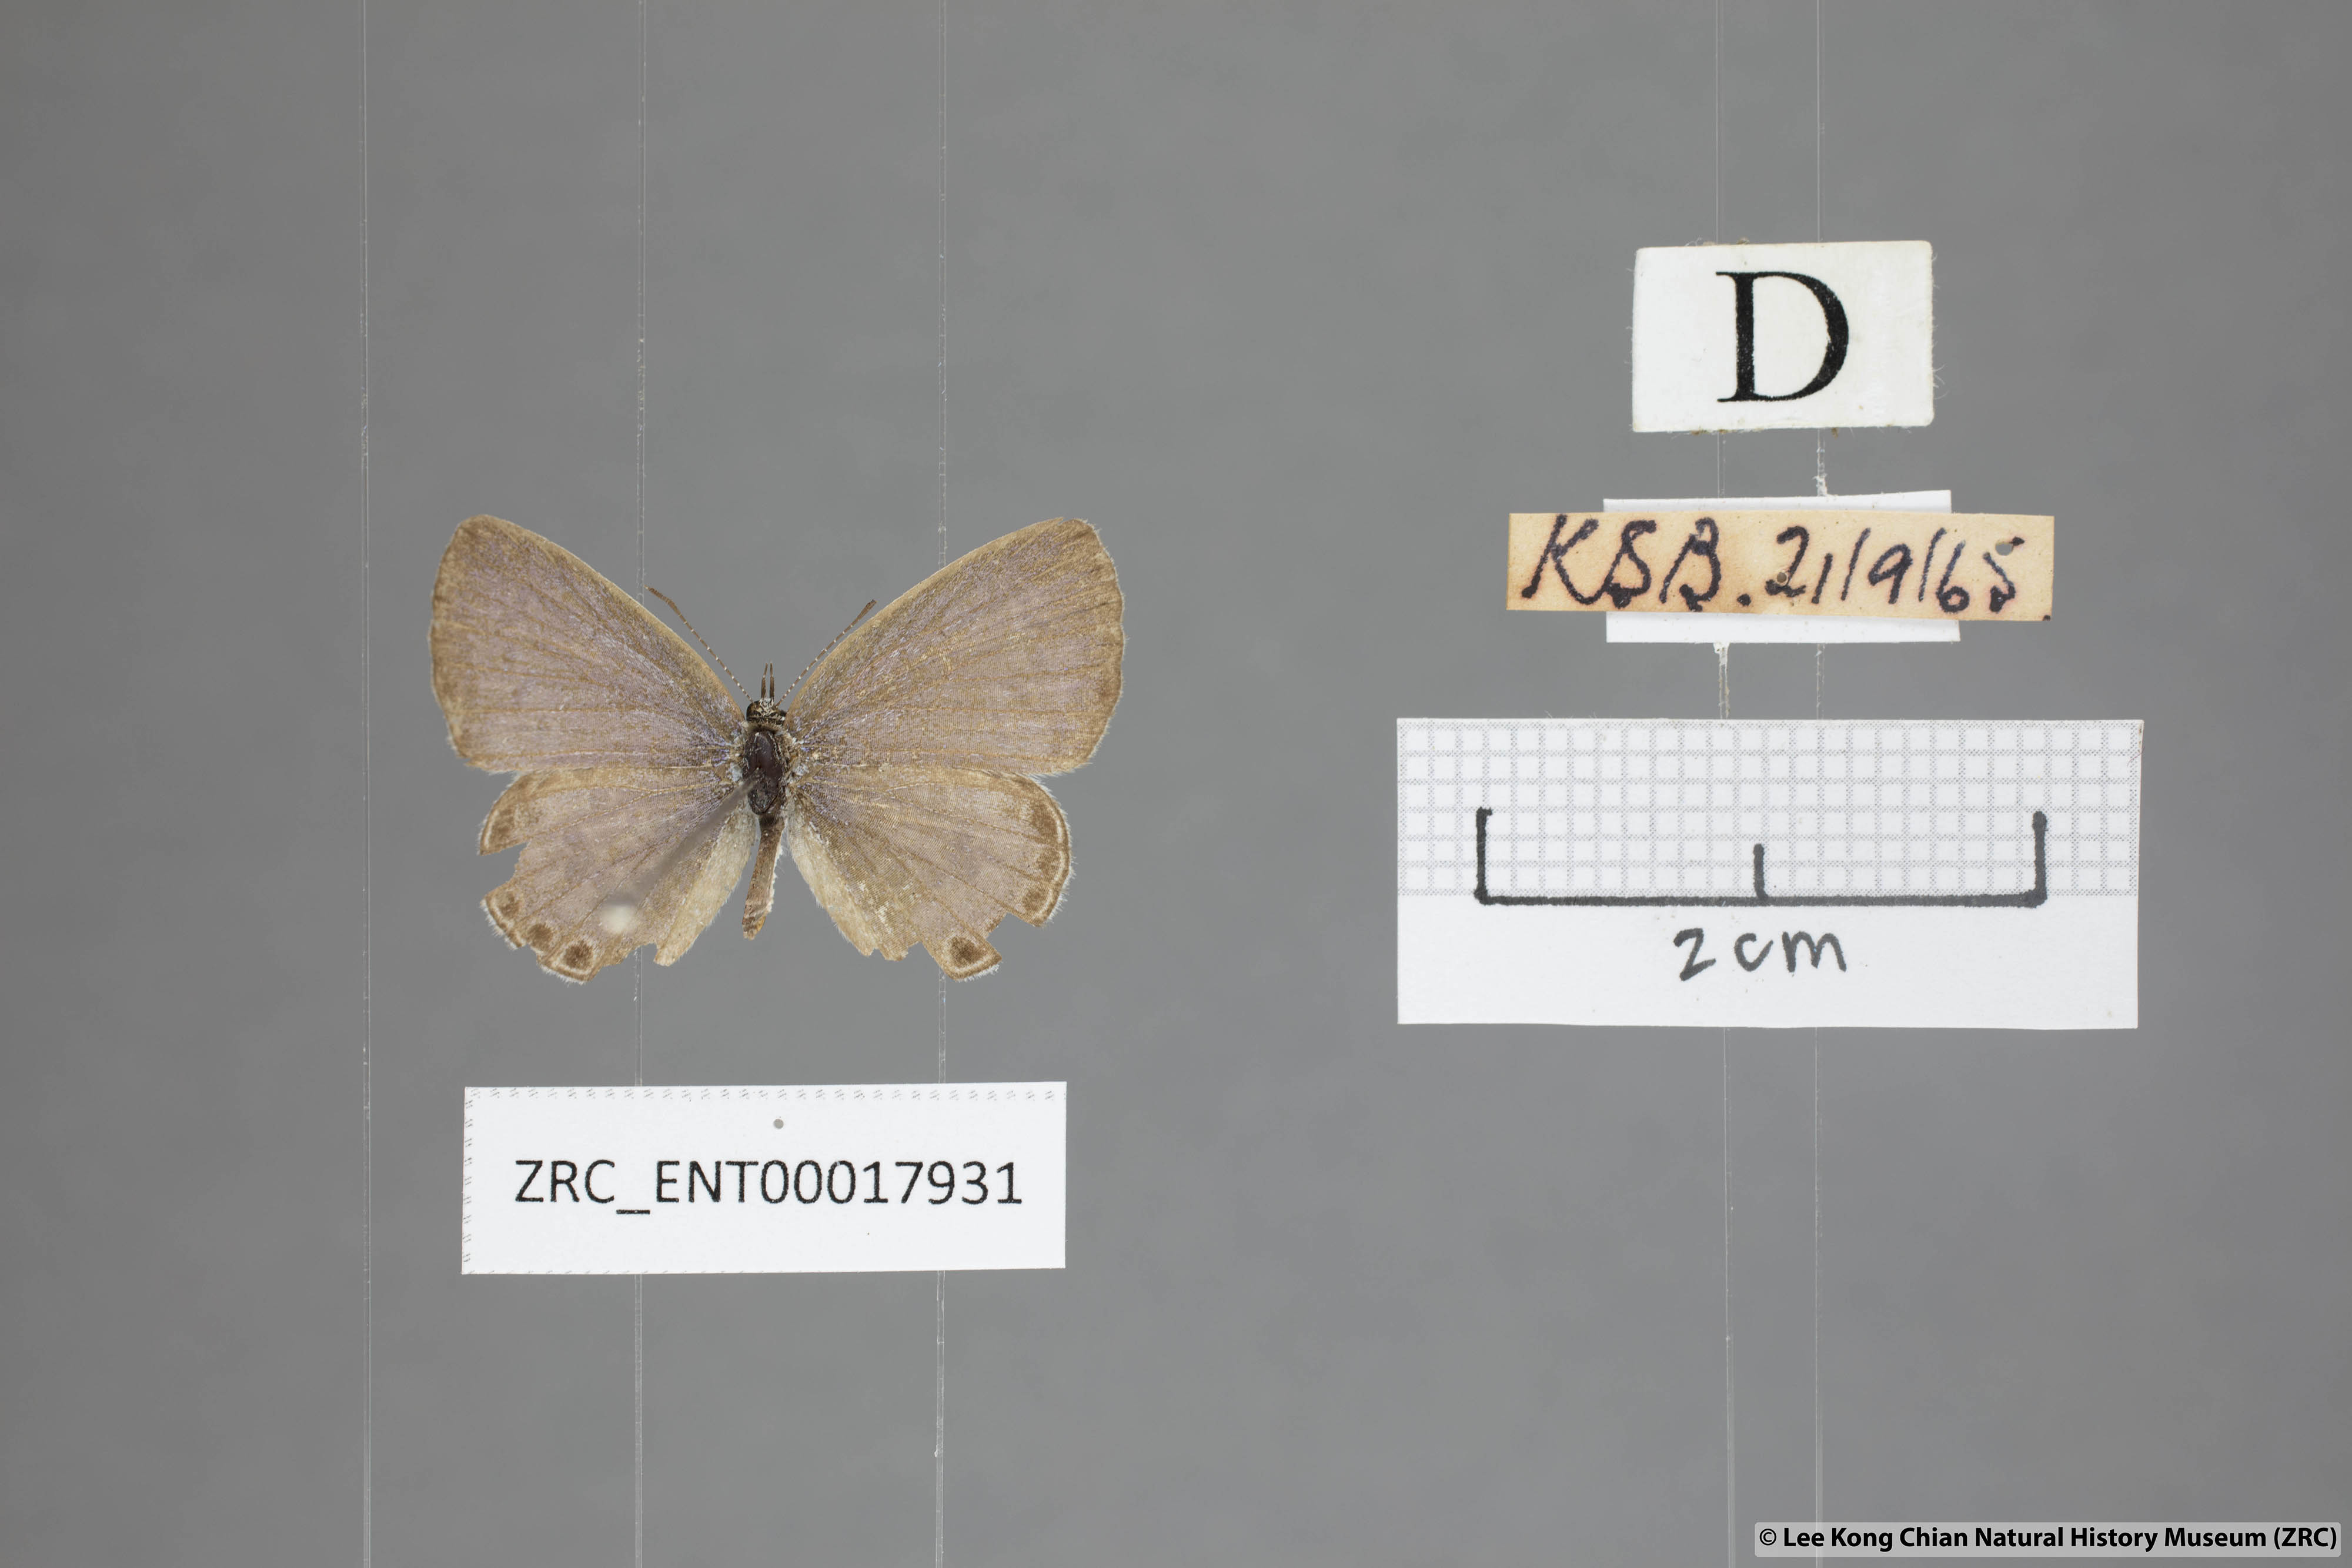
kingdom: Animalia
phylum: Arthropoda
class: Insecta
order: Lepidoptera
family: Lycaenidae
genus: Chilades
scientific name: Chilades laius
